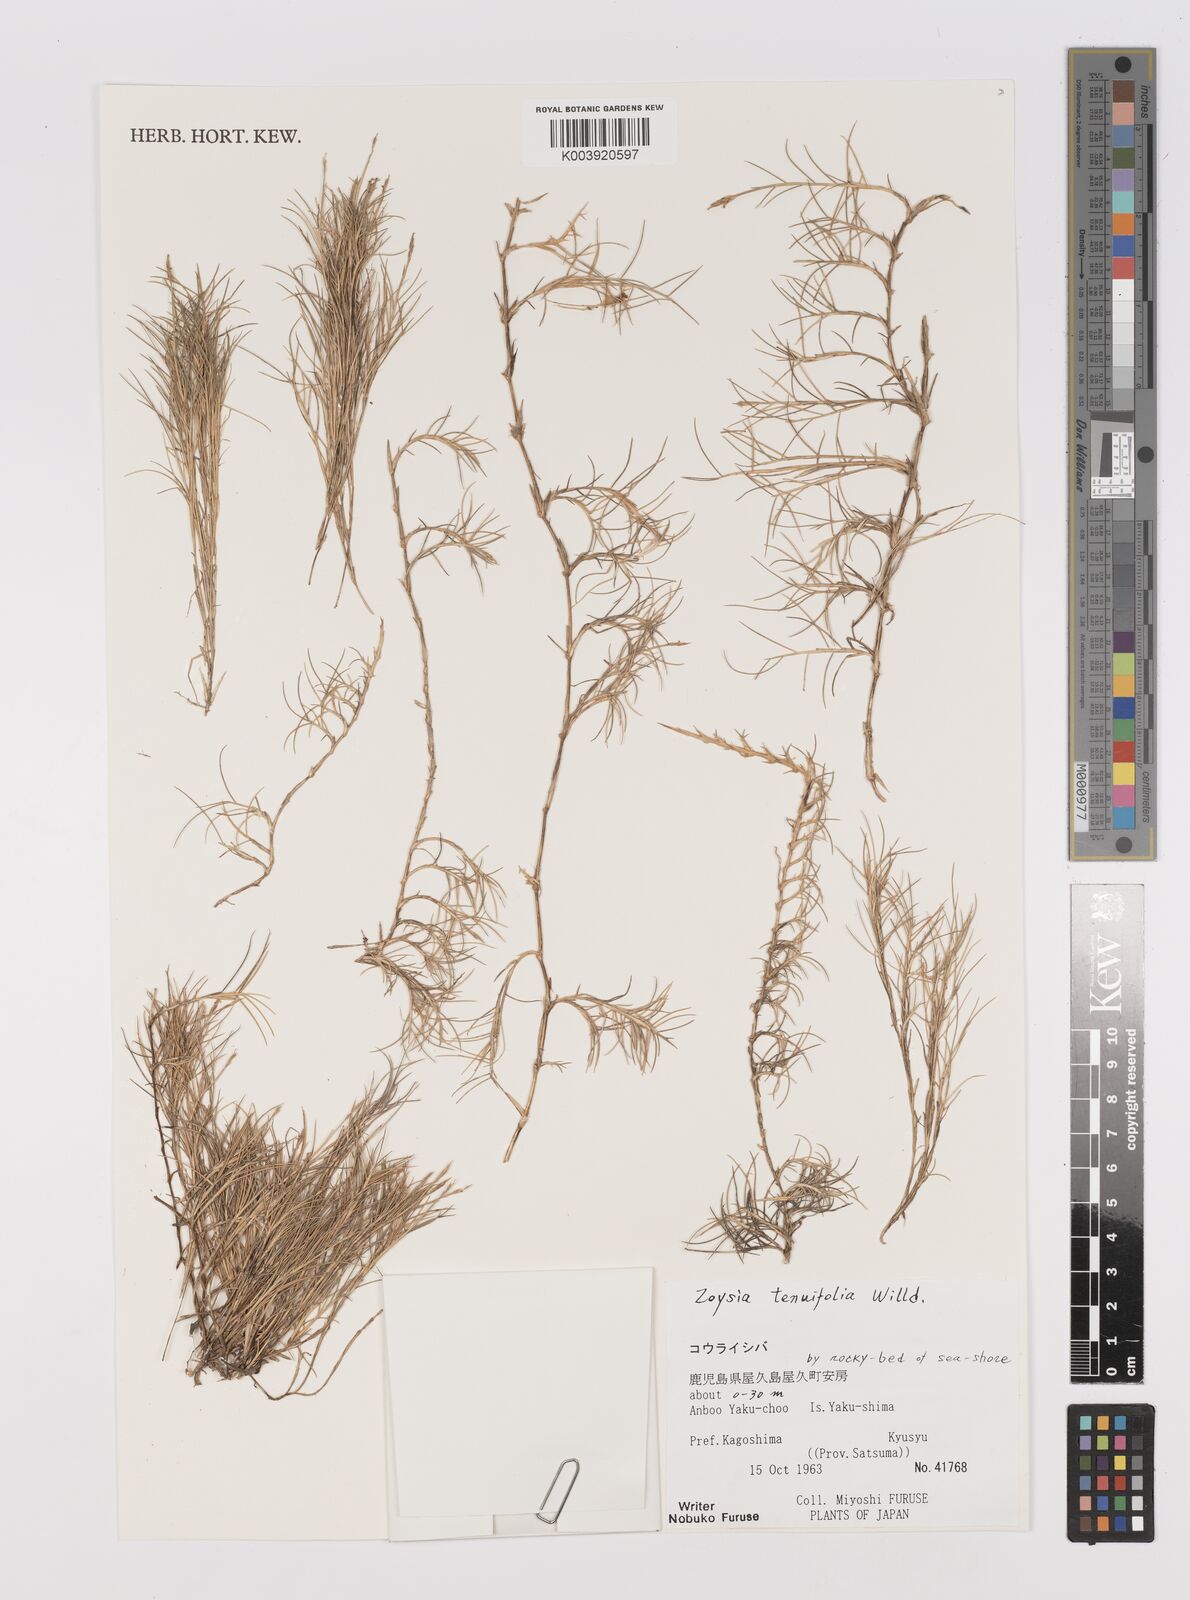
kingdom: Plantae
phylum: Tracheophyta
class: Liliopsida
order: Poales
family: Poaceae
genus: Zoysia
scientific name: Zoysia matrella
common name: Manila grass
